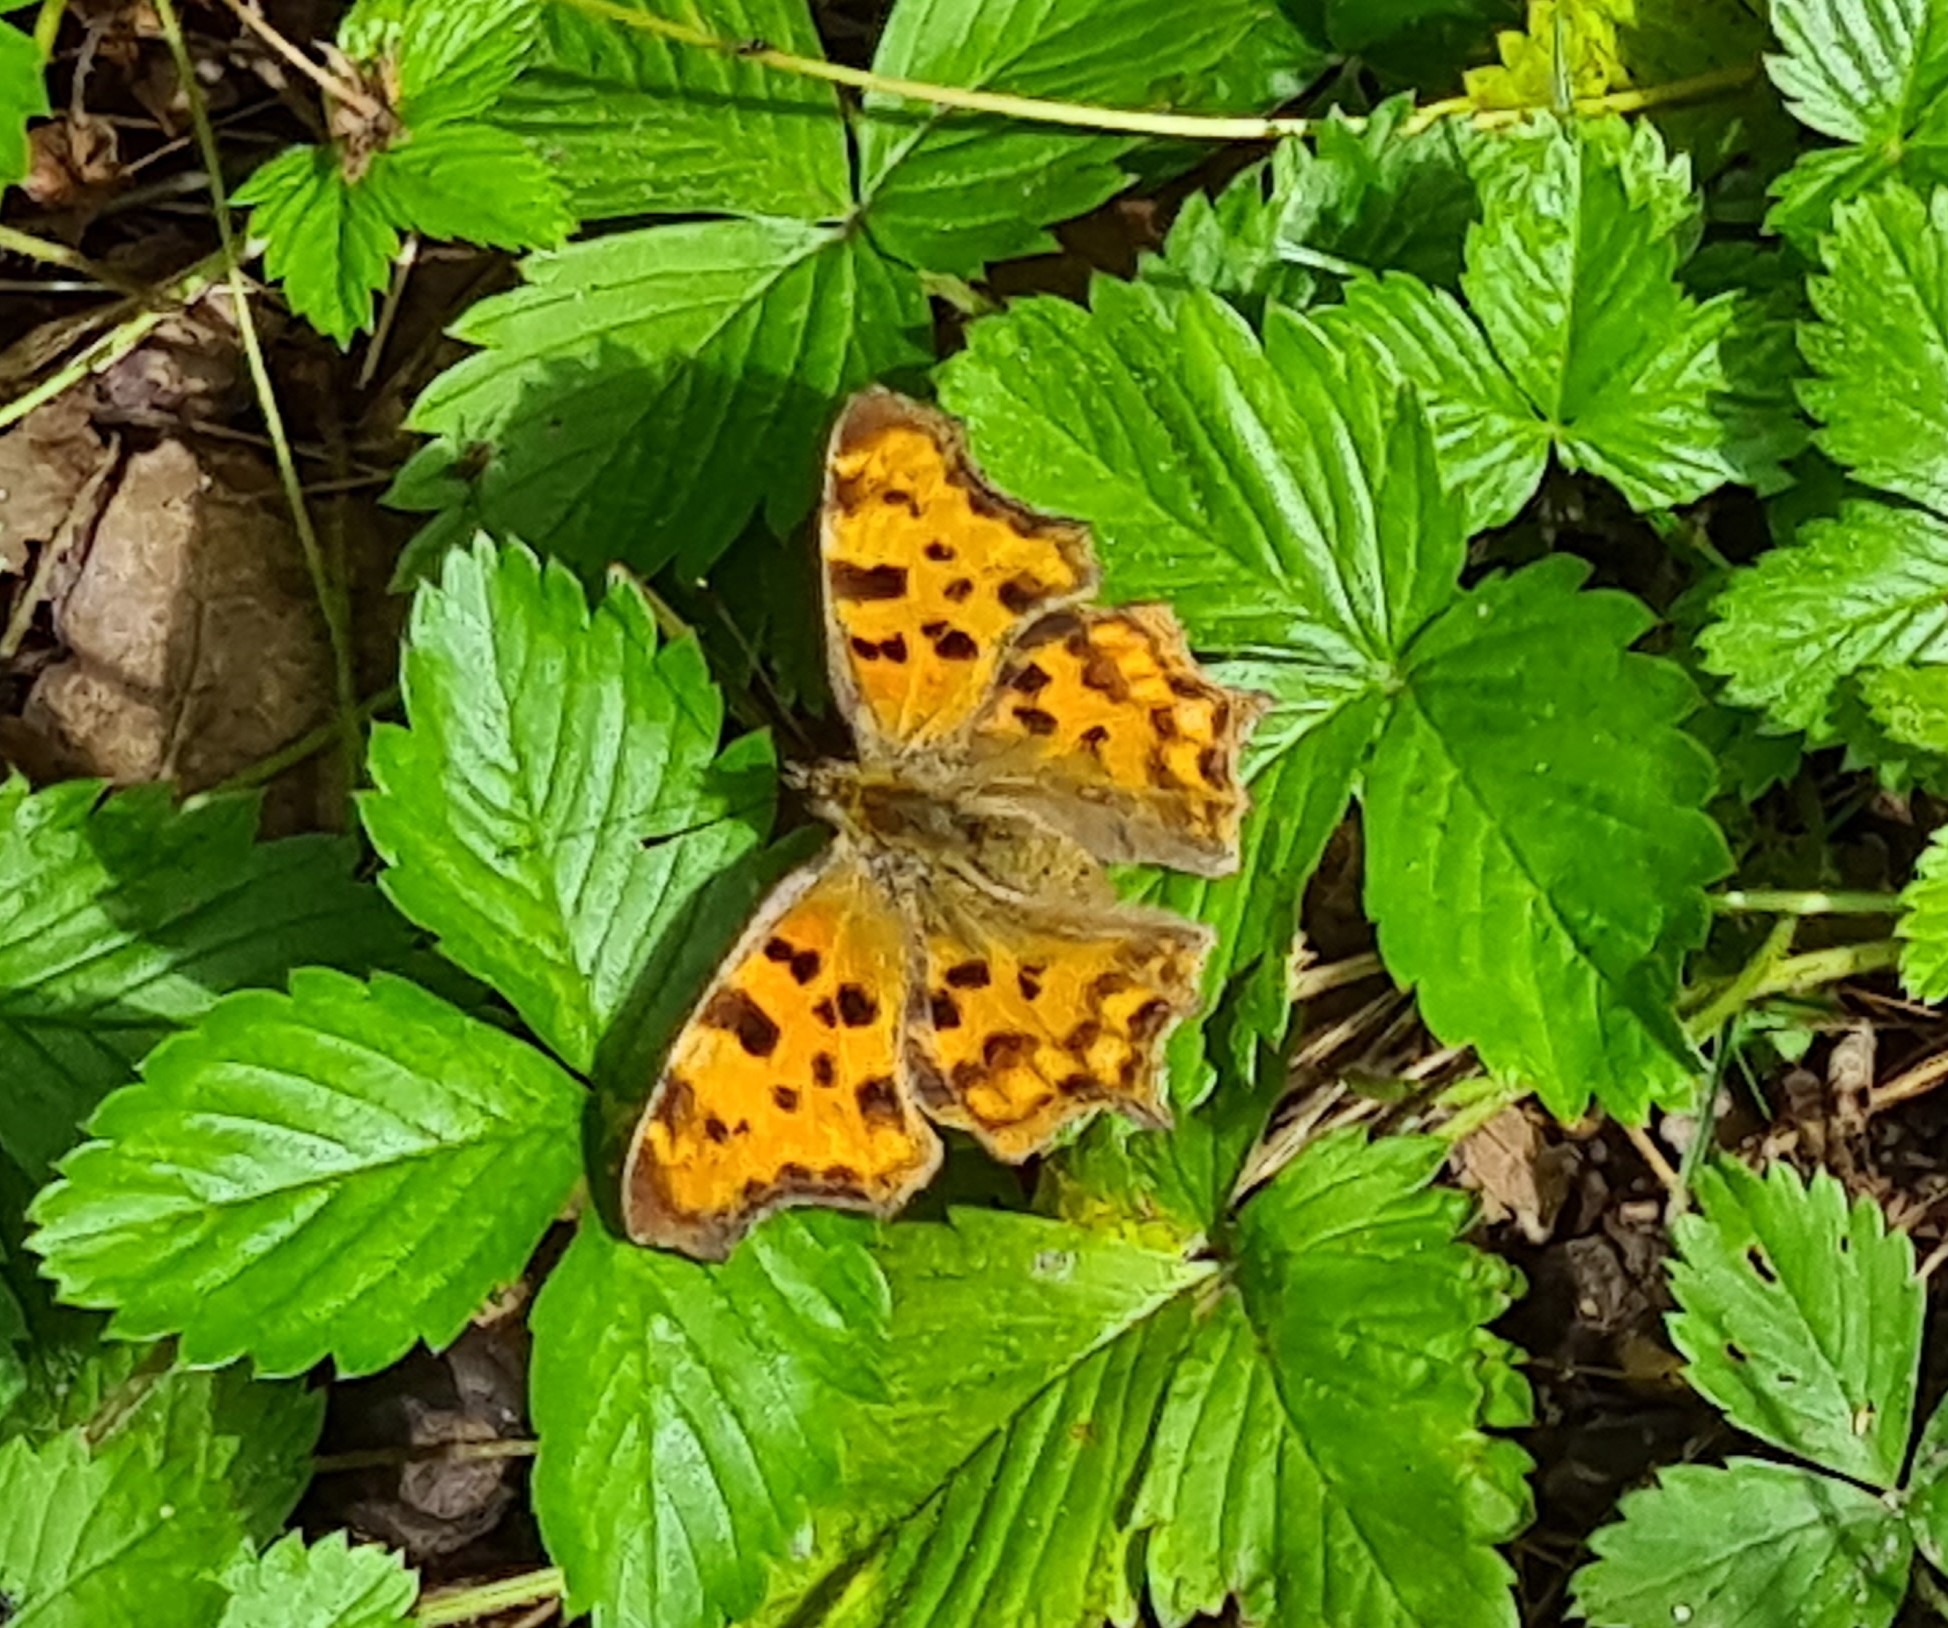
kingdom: Animalia
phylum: Arthropoda
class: Insecta
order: Lepidoptera
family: Nymphalidae
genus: Polygonia
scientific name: Polygonia c-album
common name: Det hvide C
